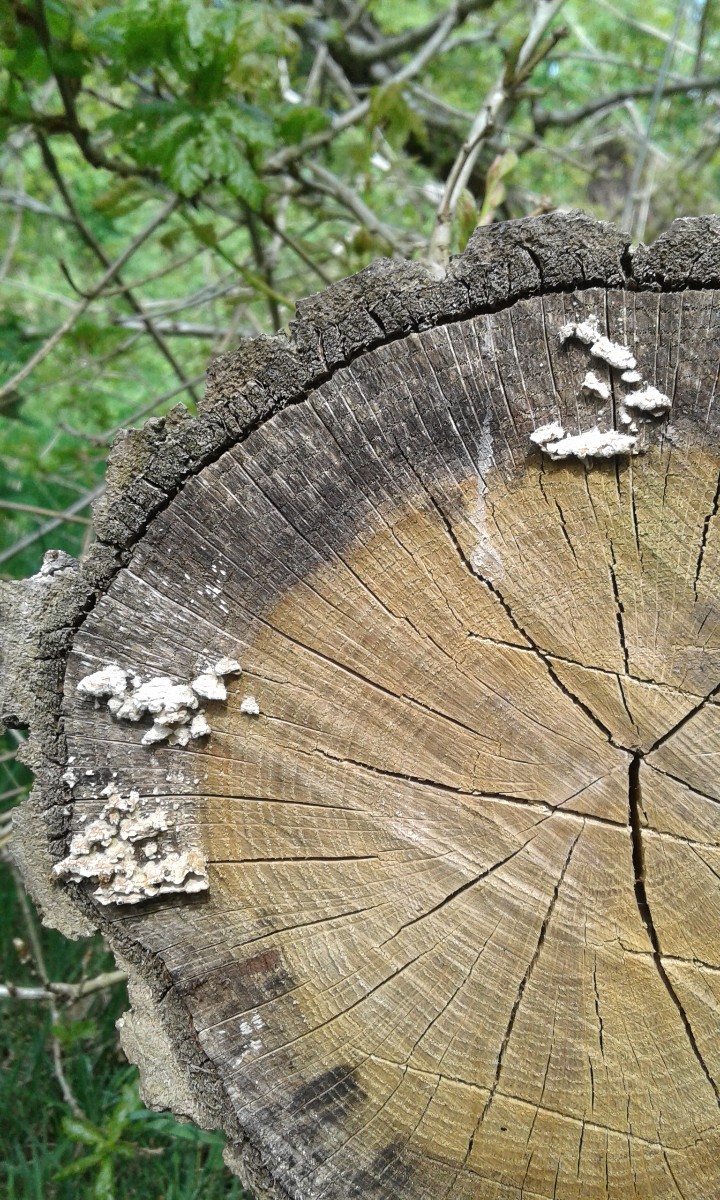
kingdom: Fungi
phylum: Basidiomycota
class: Agaricomycetes
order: Russulales
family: Stereaceae
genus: Stereum
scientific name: Stereum hirsutum
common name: håret lædersvamp
